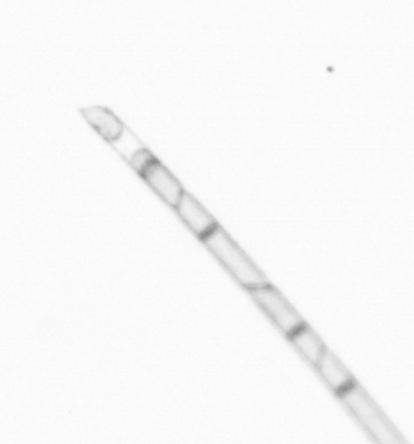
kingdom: Chromista
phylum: Ochrophyta
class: Bacillariophyceae
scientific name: Bacillariophyceae
